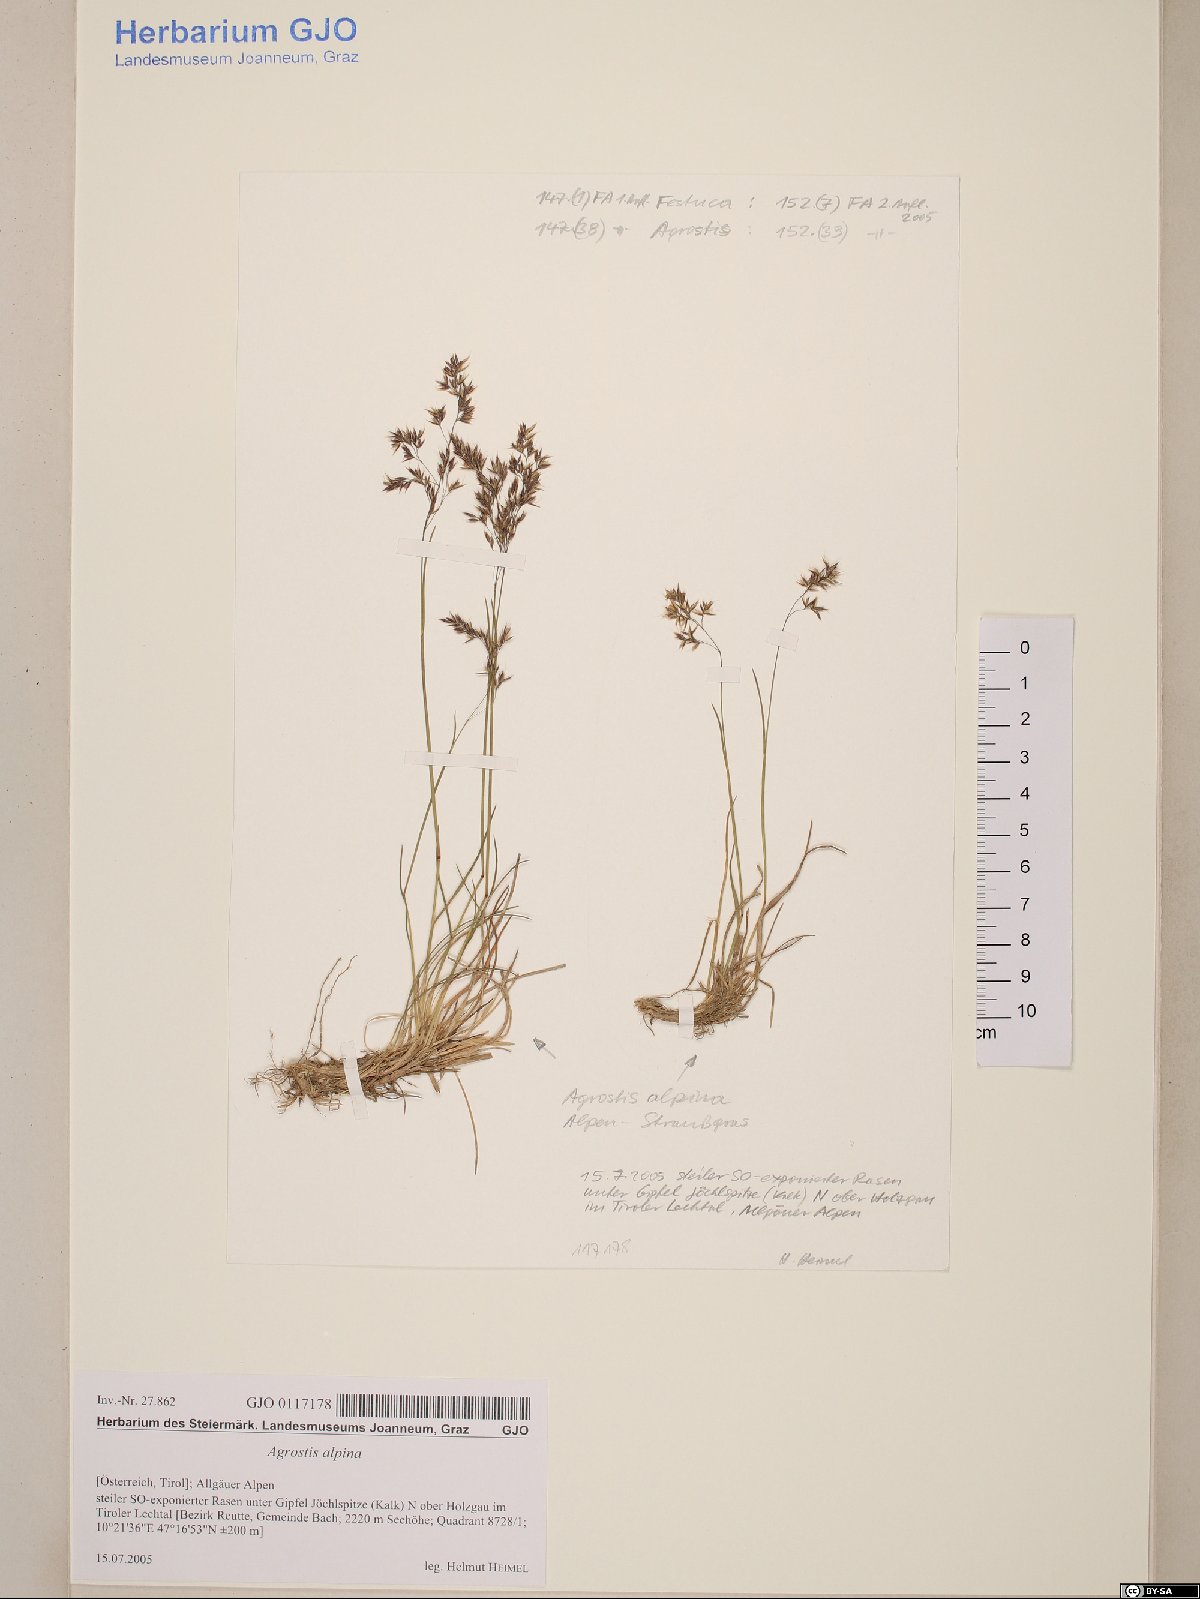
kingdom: Plantae
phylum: Tracheophyta
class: Liliopsida
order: Poales
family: Poaceae
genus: Alpagrostis
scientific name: Alpagrostis alpina
